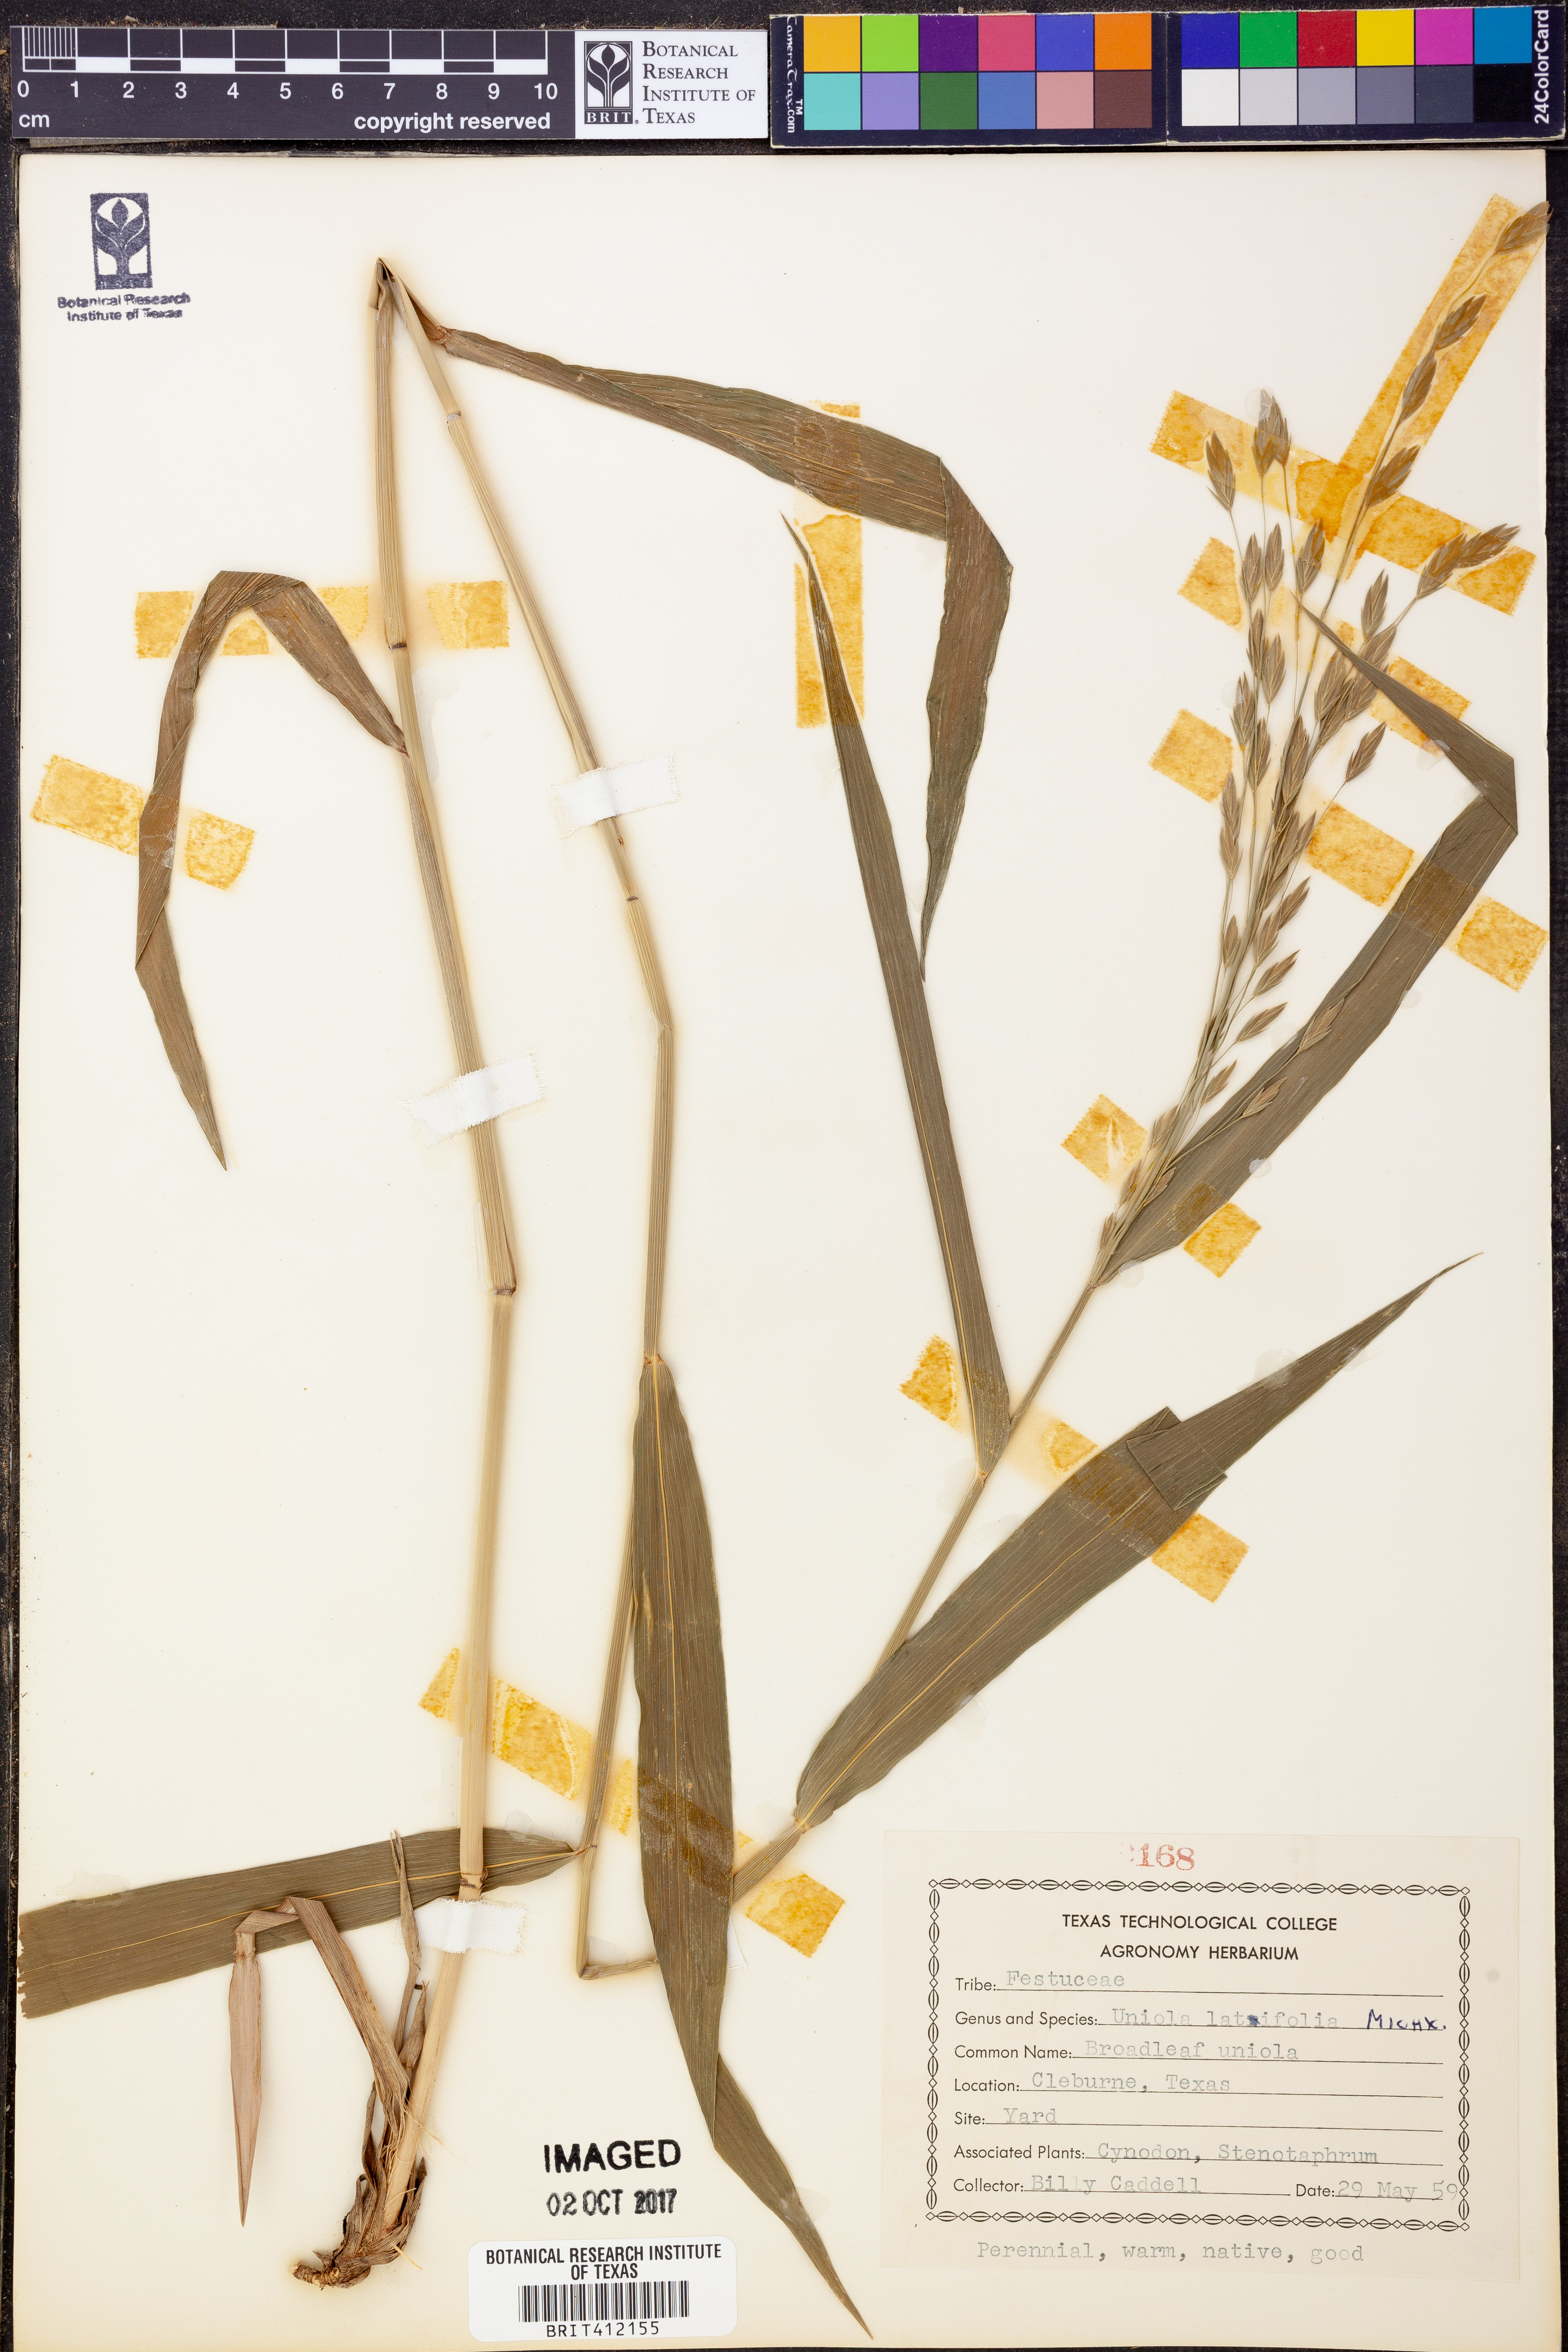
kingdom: Plantae
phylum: Tracheophyta
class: Liliopsida
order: Poales
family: Poaceae
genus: Chasmanthium
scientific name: Chasmanthium latifolium
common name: Broad-leaved chasmanthium
